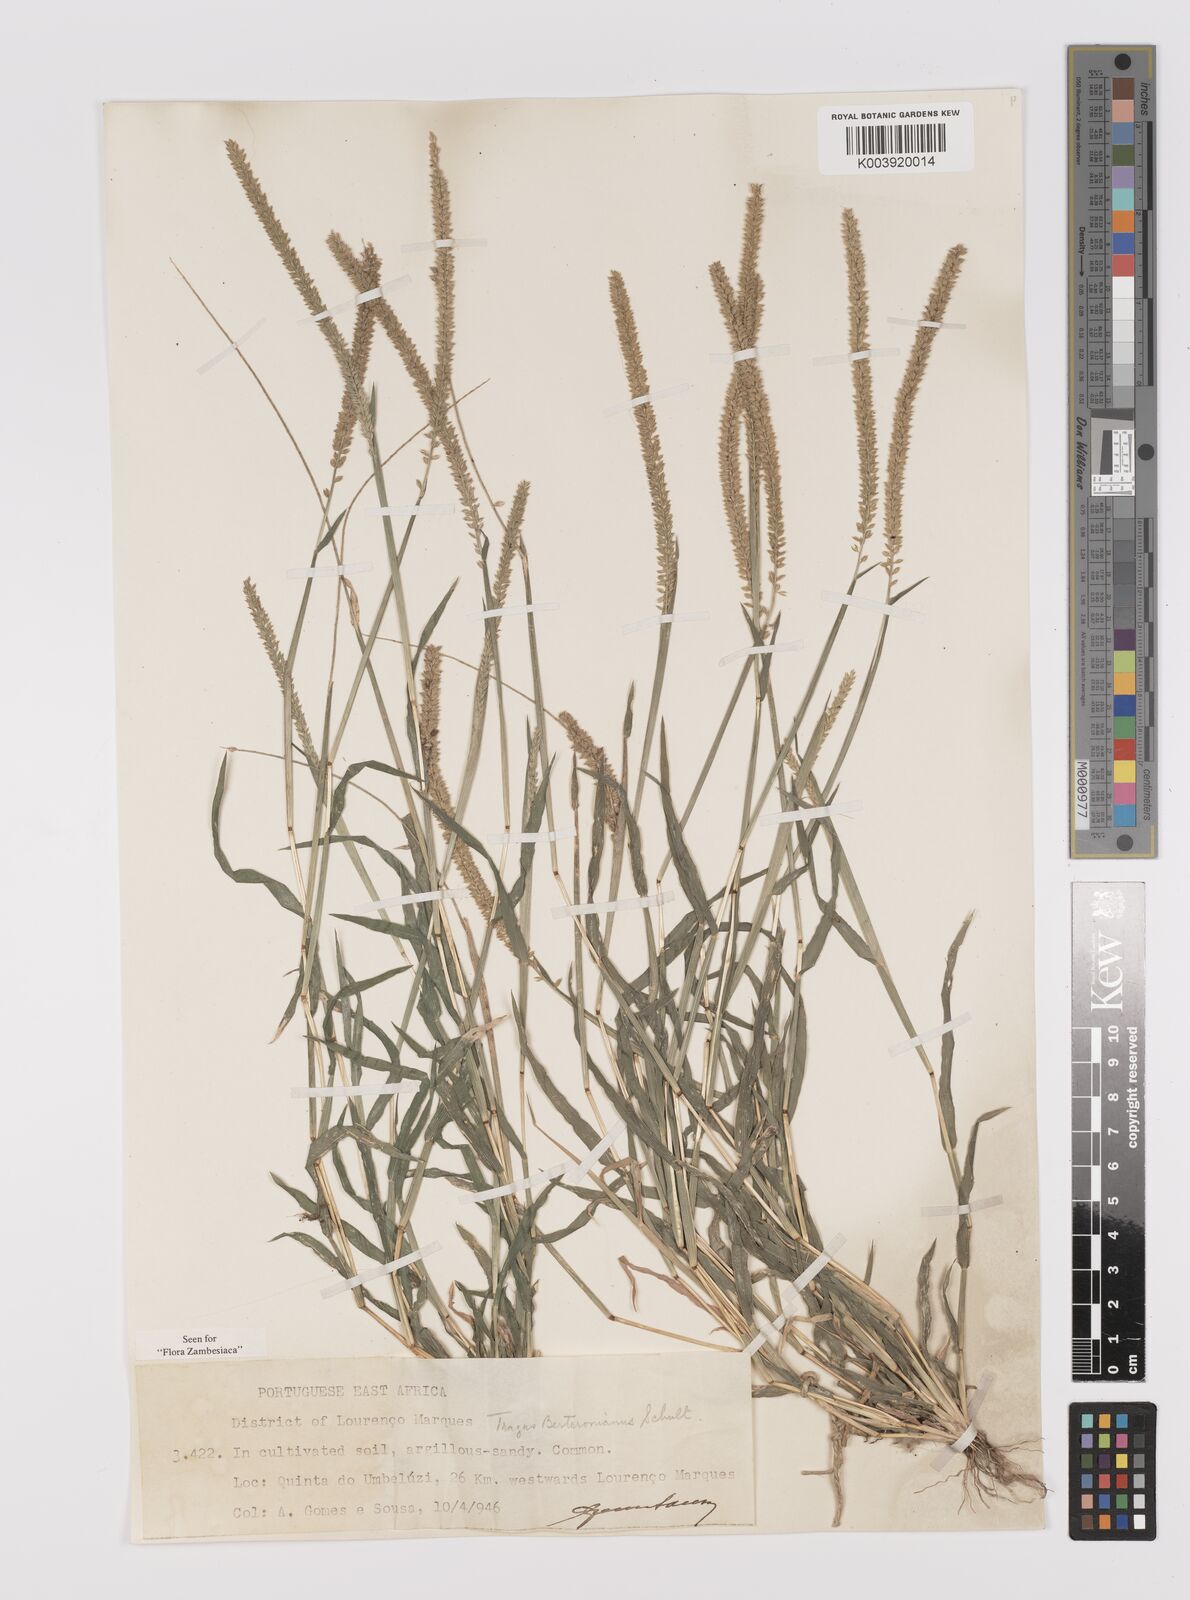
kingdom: Plantae
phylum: Tracheophyta
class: Liliopsida
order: Poales
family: Poaceae
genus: Tragus
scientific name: Tragus berteronianus
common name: African bur-grass
